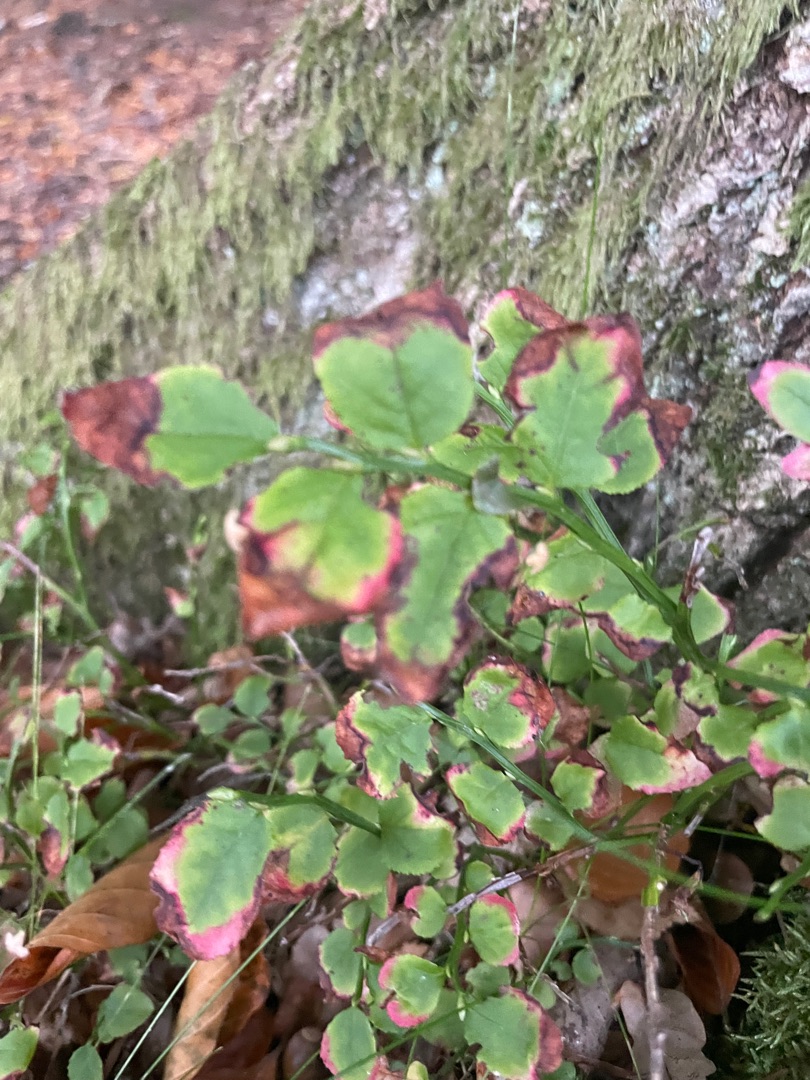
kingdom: Plantae
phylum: Tracheophyta
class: Magnoliopsida
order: Ericales
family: Ericaceae
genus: Vaccinium
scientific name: Vaccinium myrtillus
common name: Blåbær
